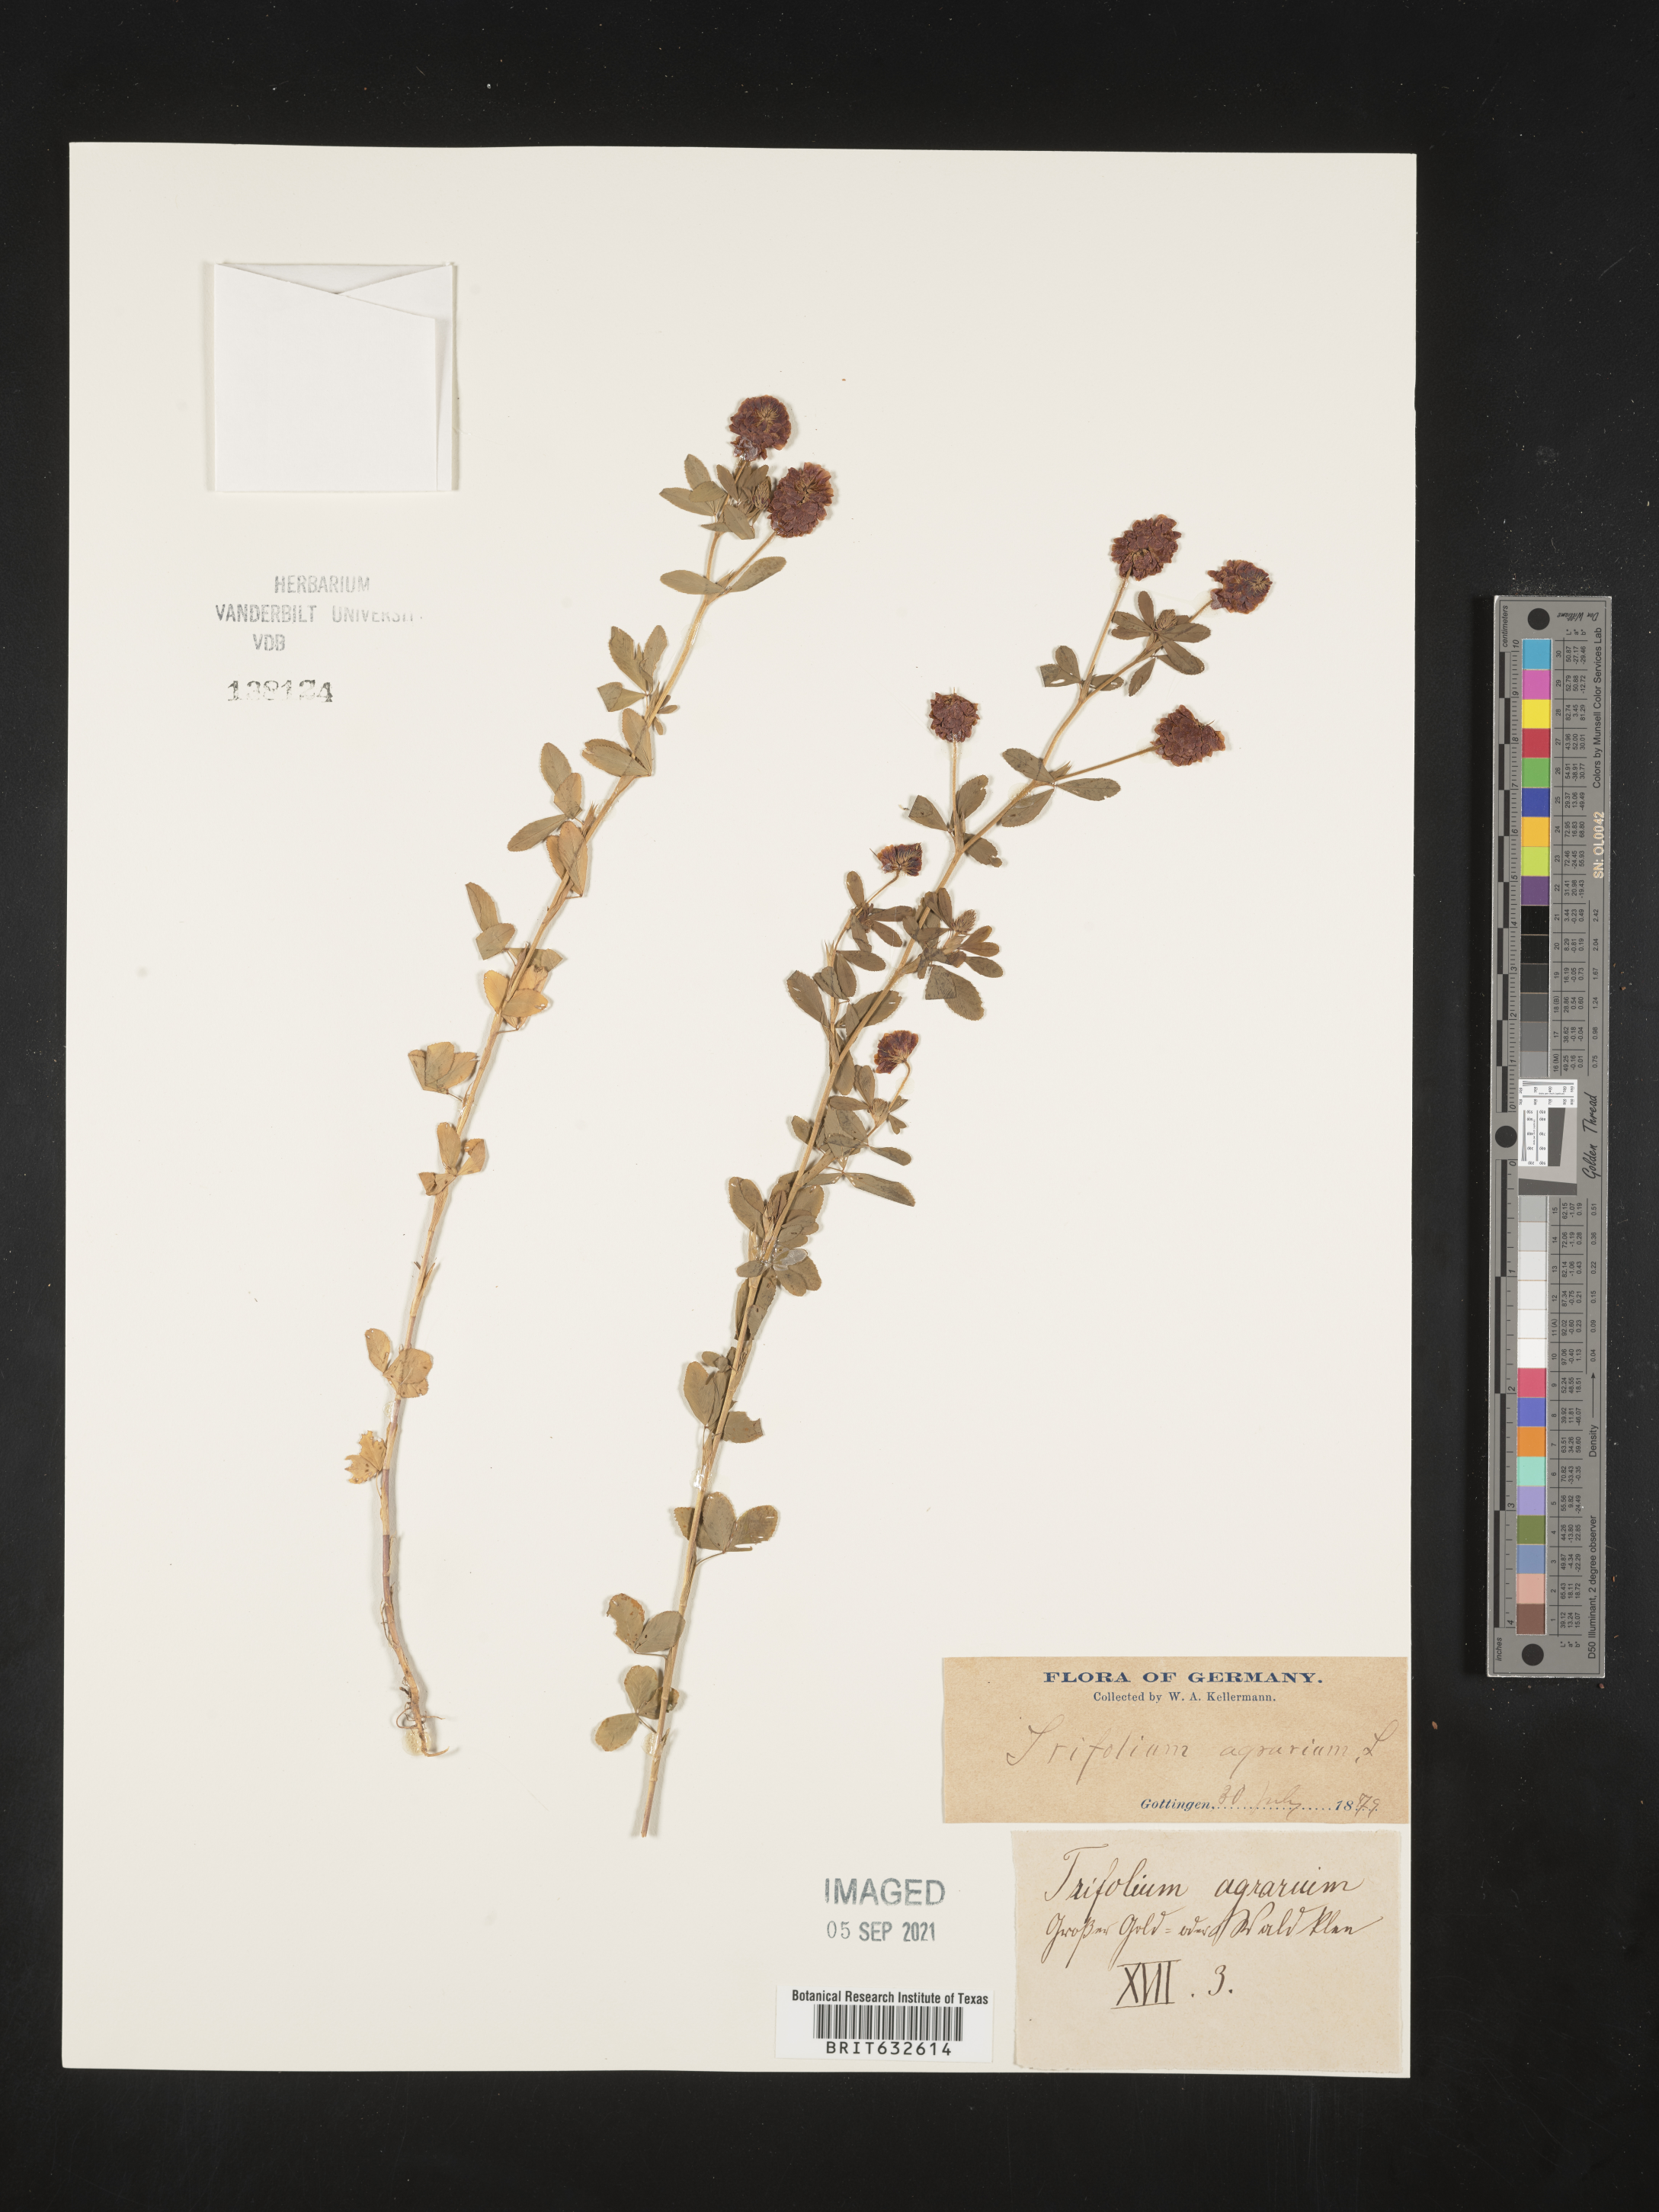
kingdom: Plantae
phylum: Tracheophyta
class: Magnoliopsida
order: Fabales
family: Fabaceae
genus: Trifolium
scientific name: Trifolium
